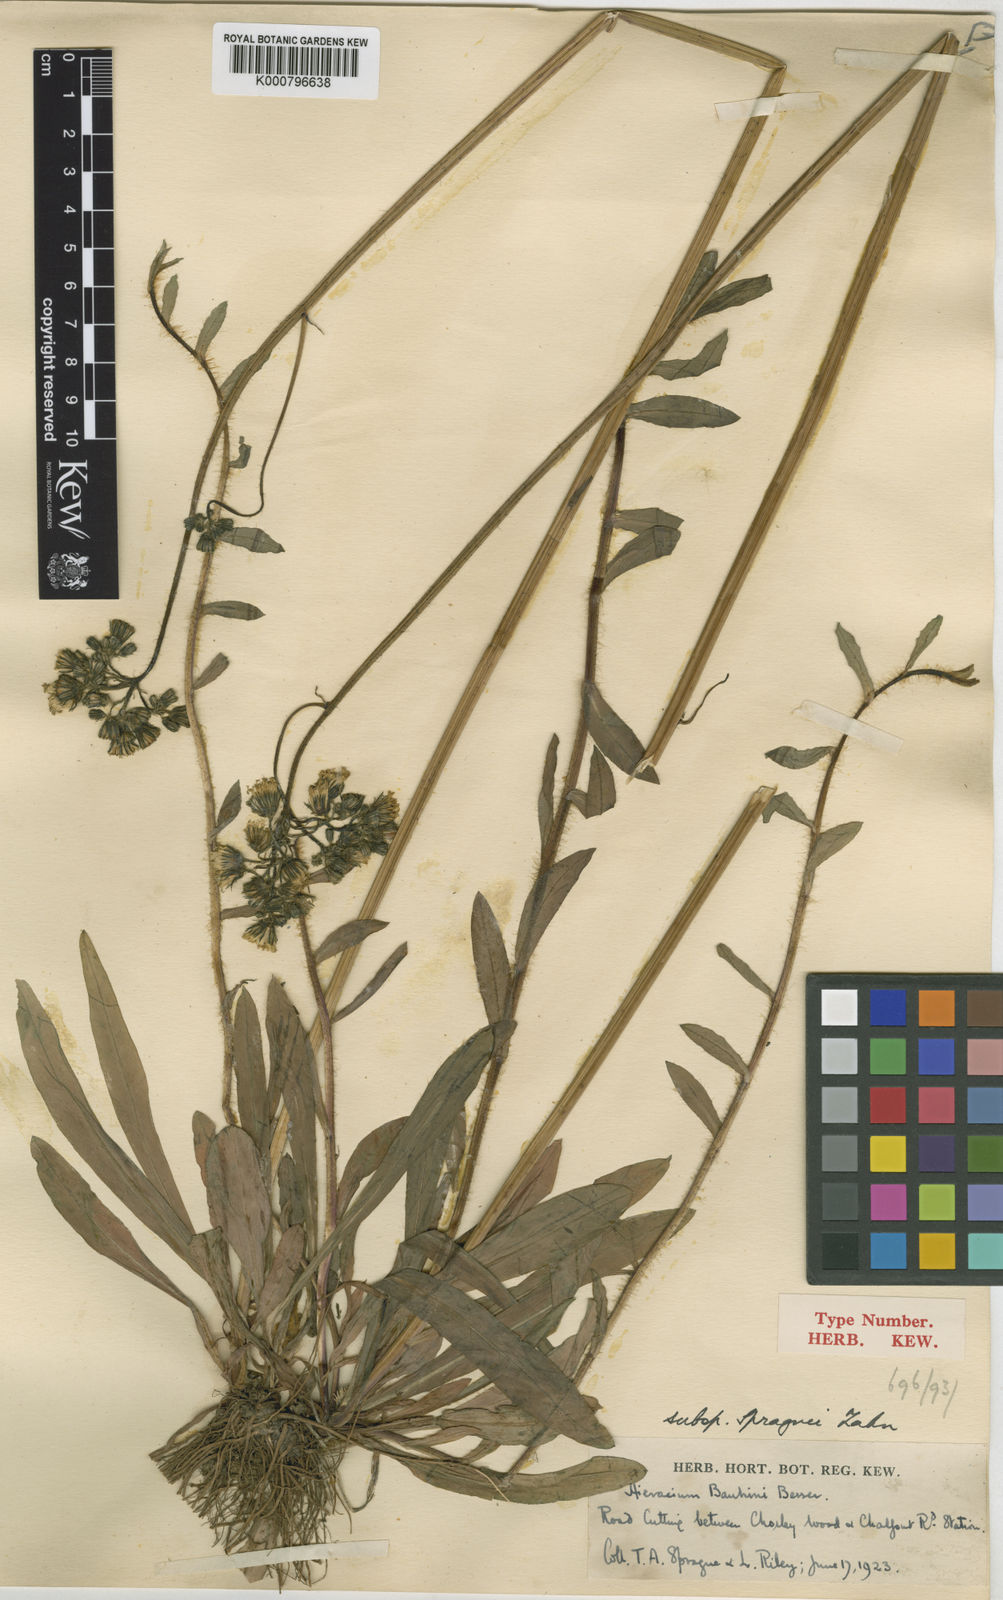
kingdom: Plantae
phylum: Tracheophyta
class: Magnoliopsida
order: Asterales
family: Asteraceae
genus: Pilosella
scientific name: Pilosella bauhini
